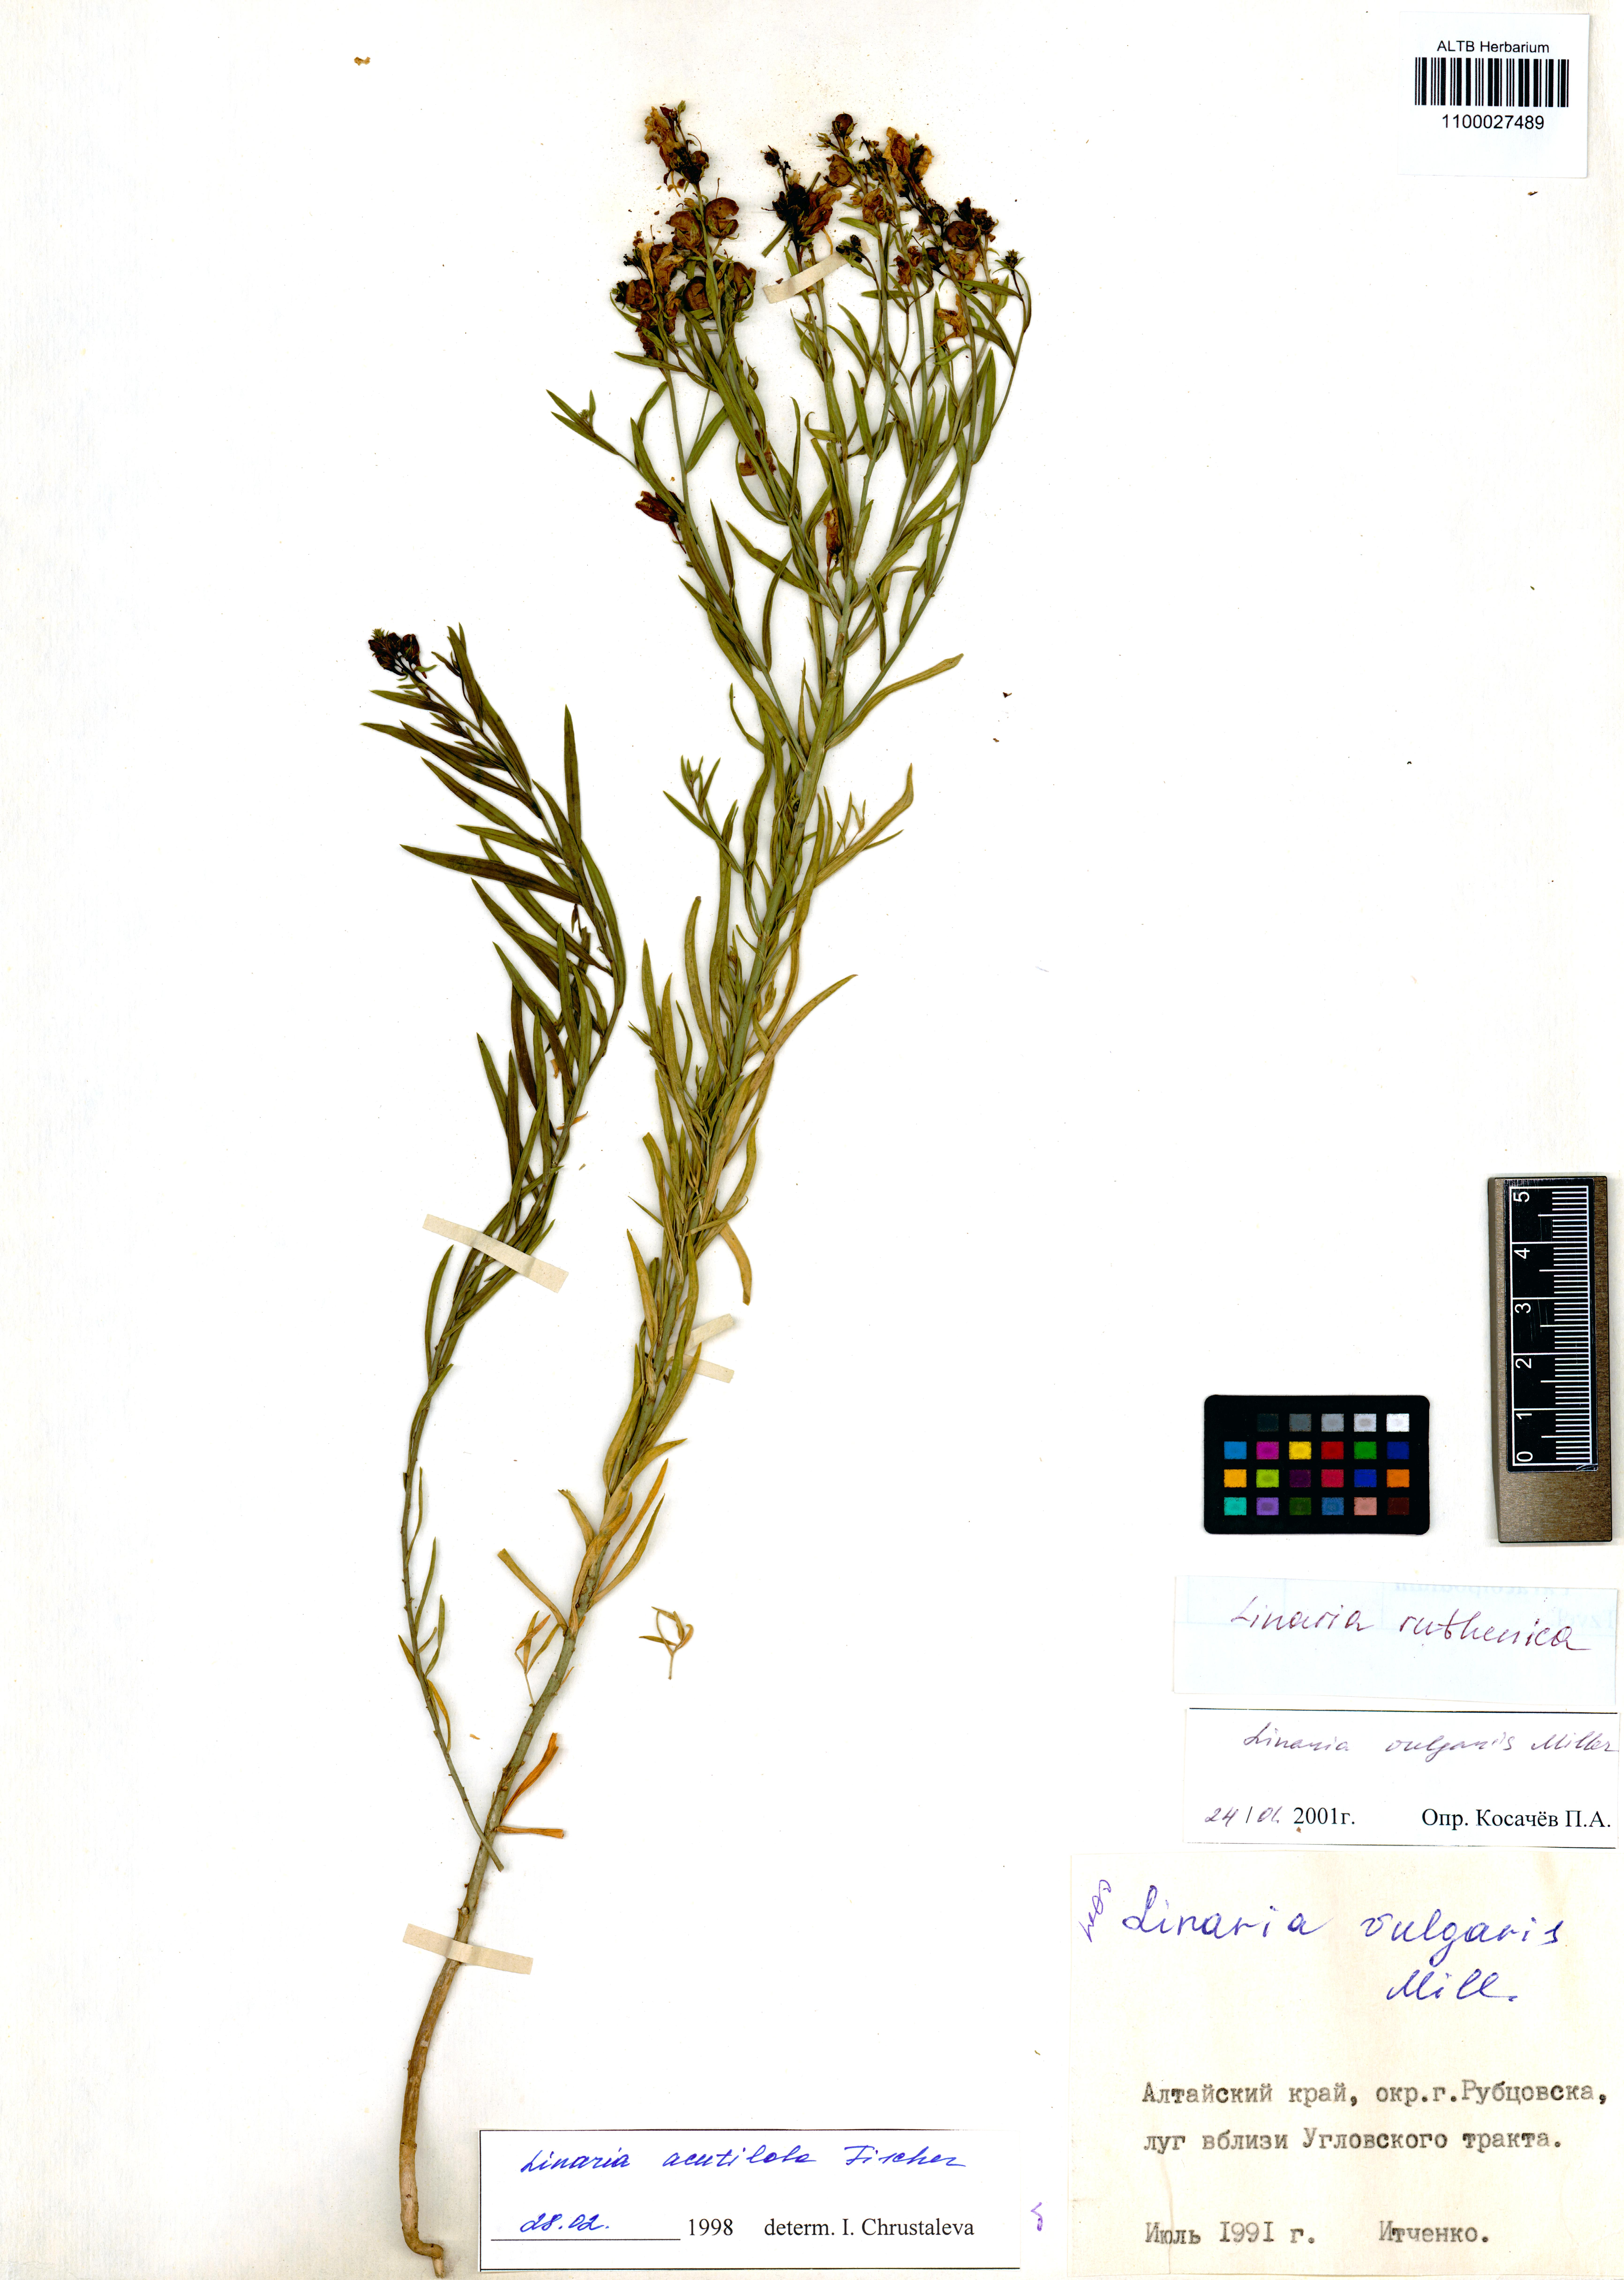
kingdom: Plantae
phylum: Tracheophyta
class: Magnoliopsida
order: Lamiales
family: Plantaginaceae
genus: Linaria
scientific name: Linaria biebersteinii
